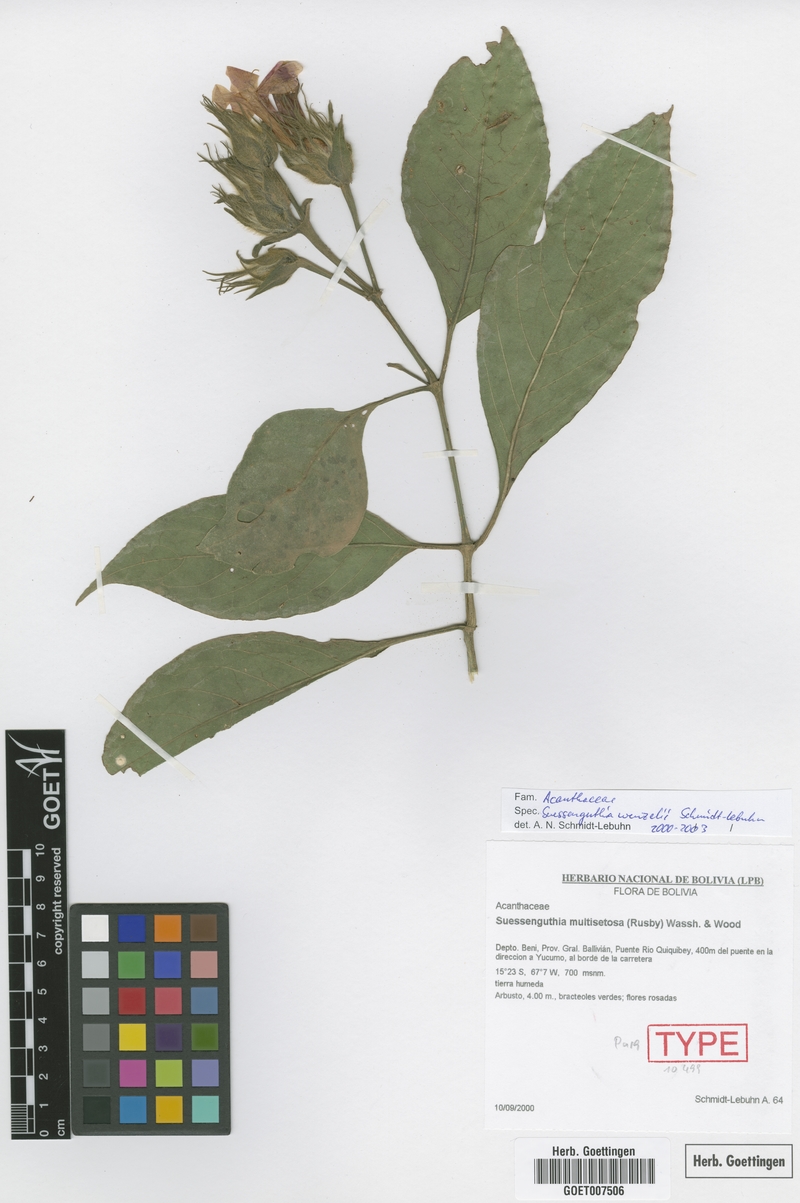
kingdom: Plantae
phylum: Tracheophyta
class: Magnoliopsida
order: Lamiales
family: Acanthaceae
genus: Suessenguthia
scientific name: Suessenguthia wenzelii
